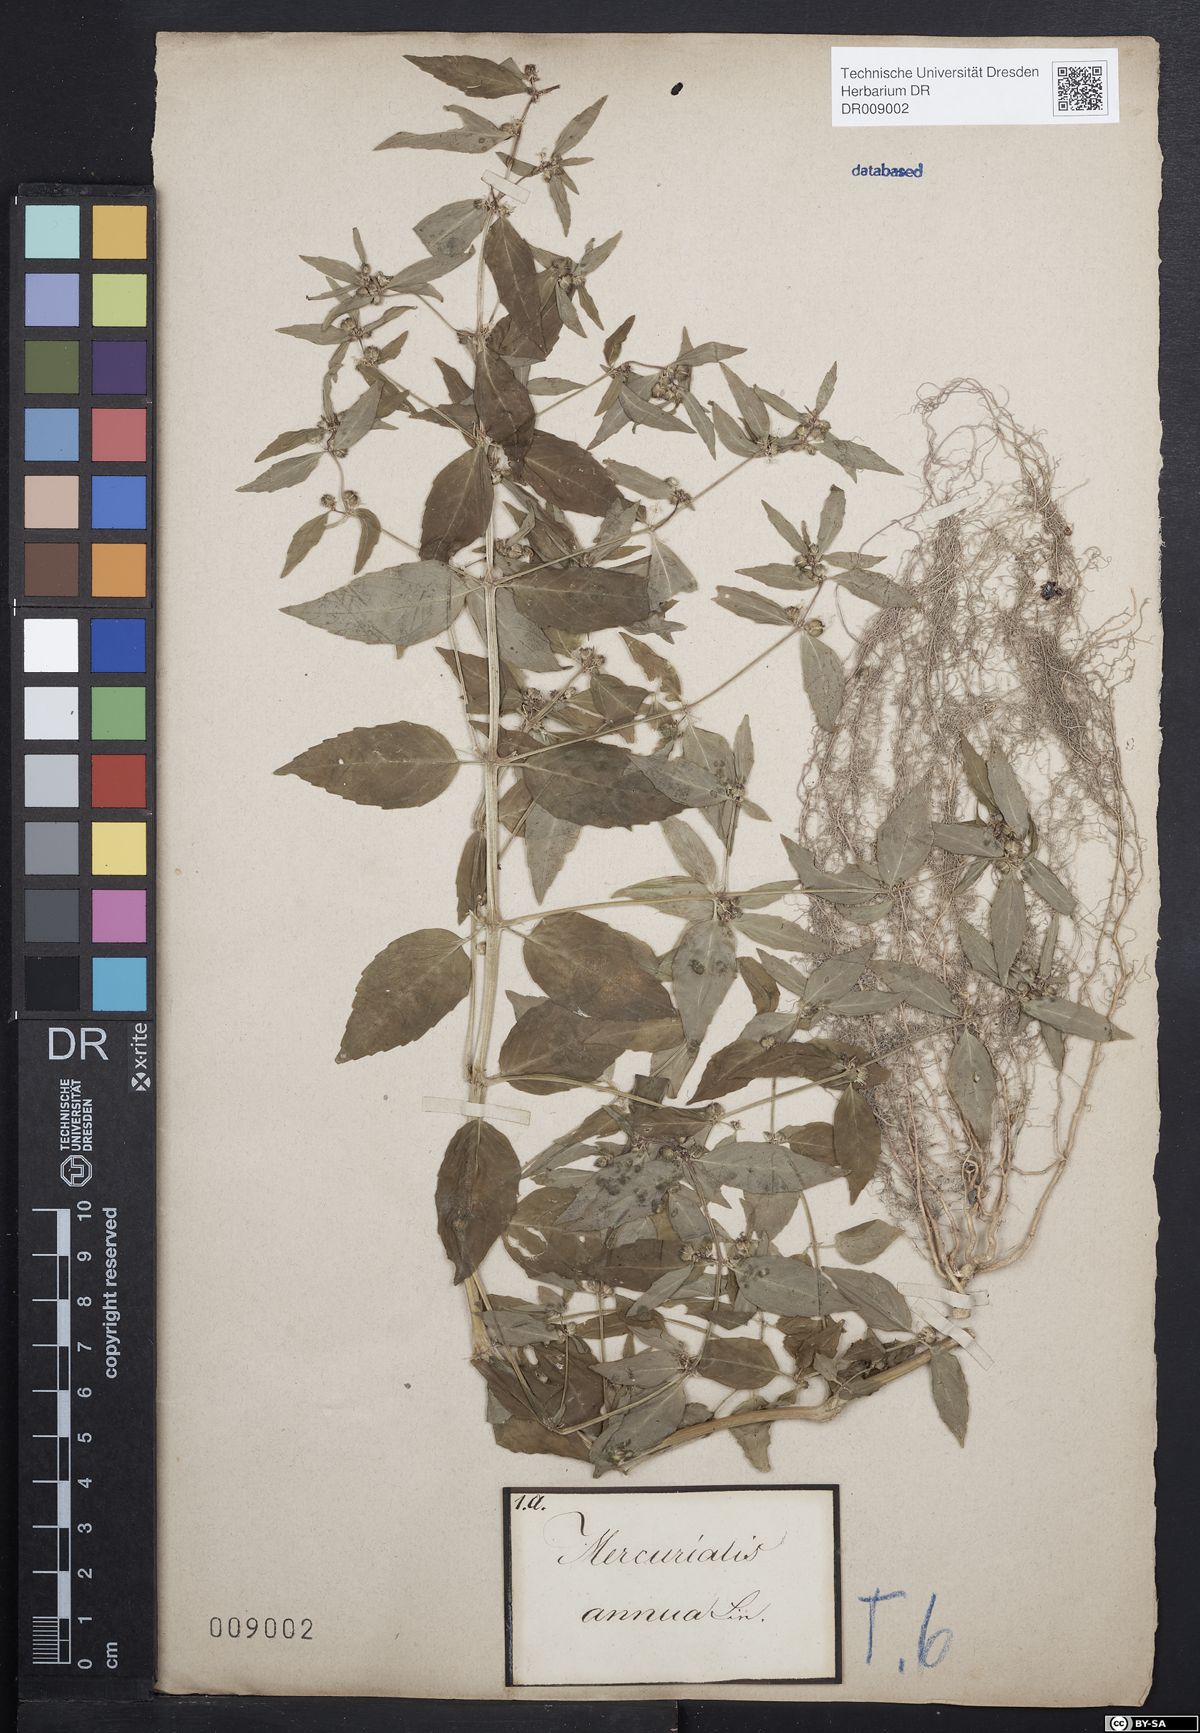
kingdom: Plantae
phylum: Tracheophyta
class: Magnoliopsida
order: Malpighiales
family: Euphorbiaceae
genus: Mercurialis
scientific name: Mercurialis annua
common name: Annual mercury
